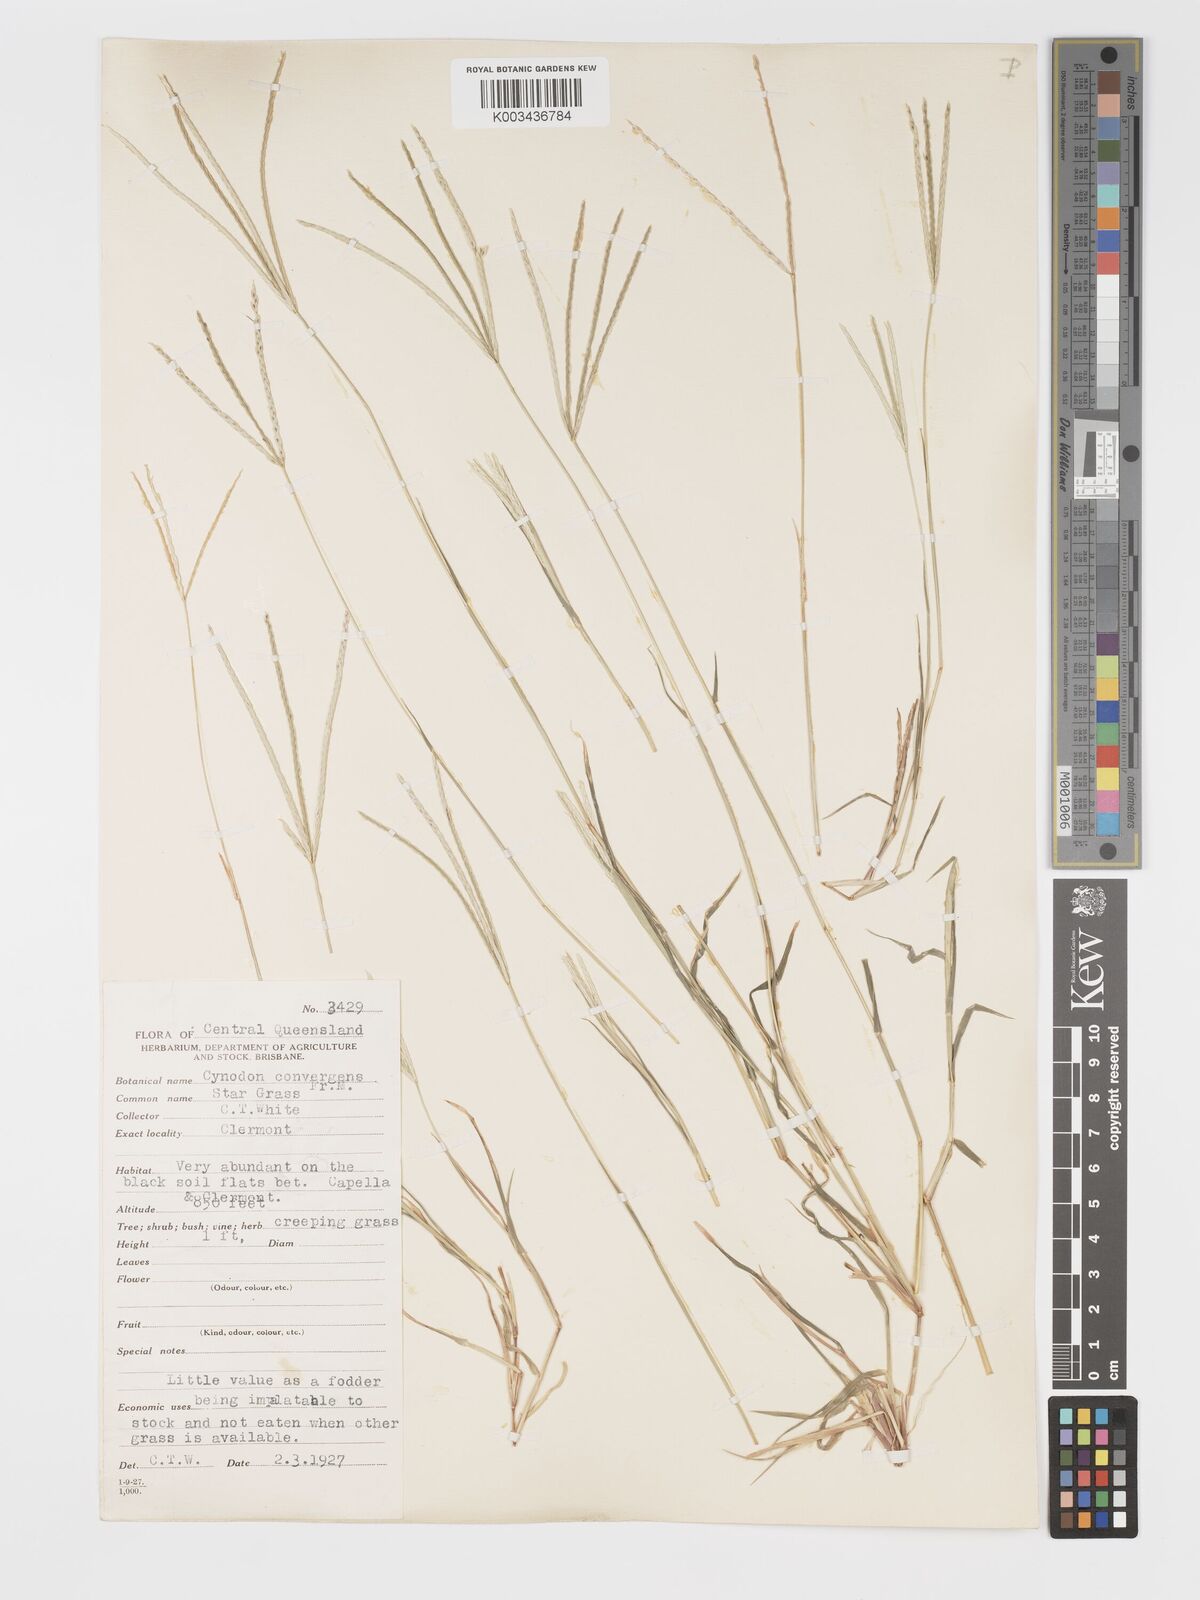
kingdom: Plantae
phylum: Tracheophyta
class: Liliopsida
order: Poales
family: Poaceae
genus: Cynodon
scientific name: Cynodon convergens
